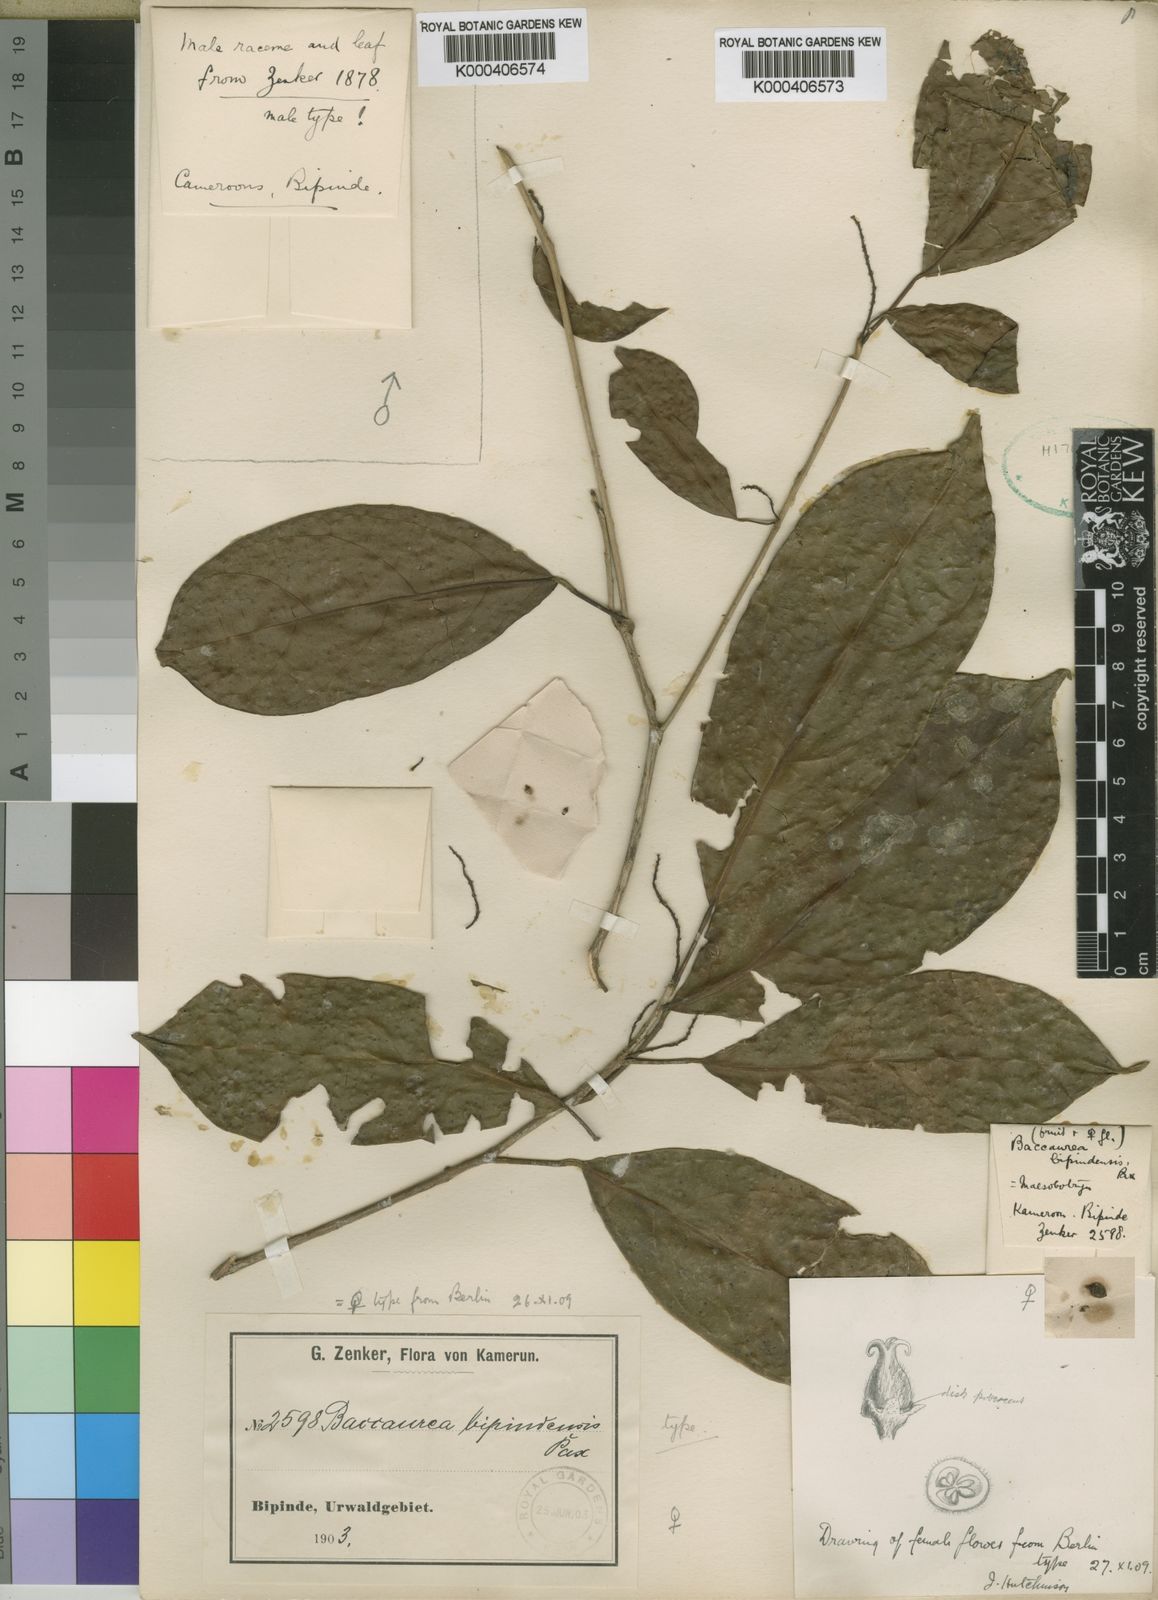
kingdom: Plantae
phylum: Tracheophyta
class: Magnoliopsida
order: Malpighiales
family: Phyllanthaceae
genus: Maesobotrya
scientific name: Maesobotrya
